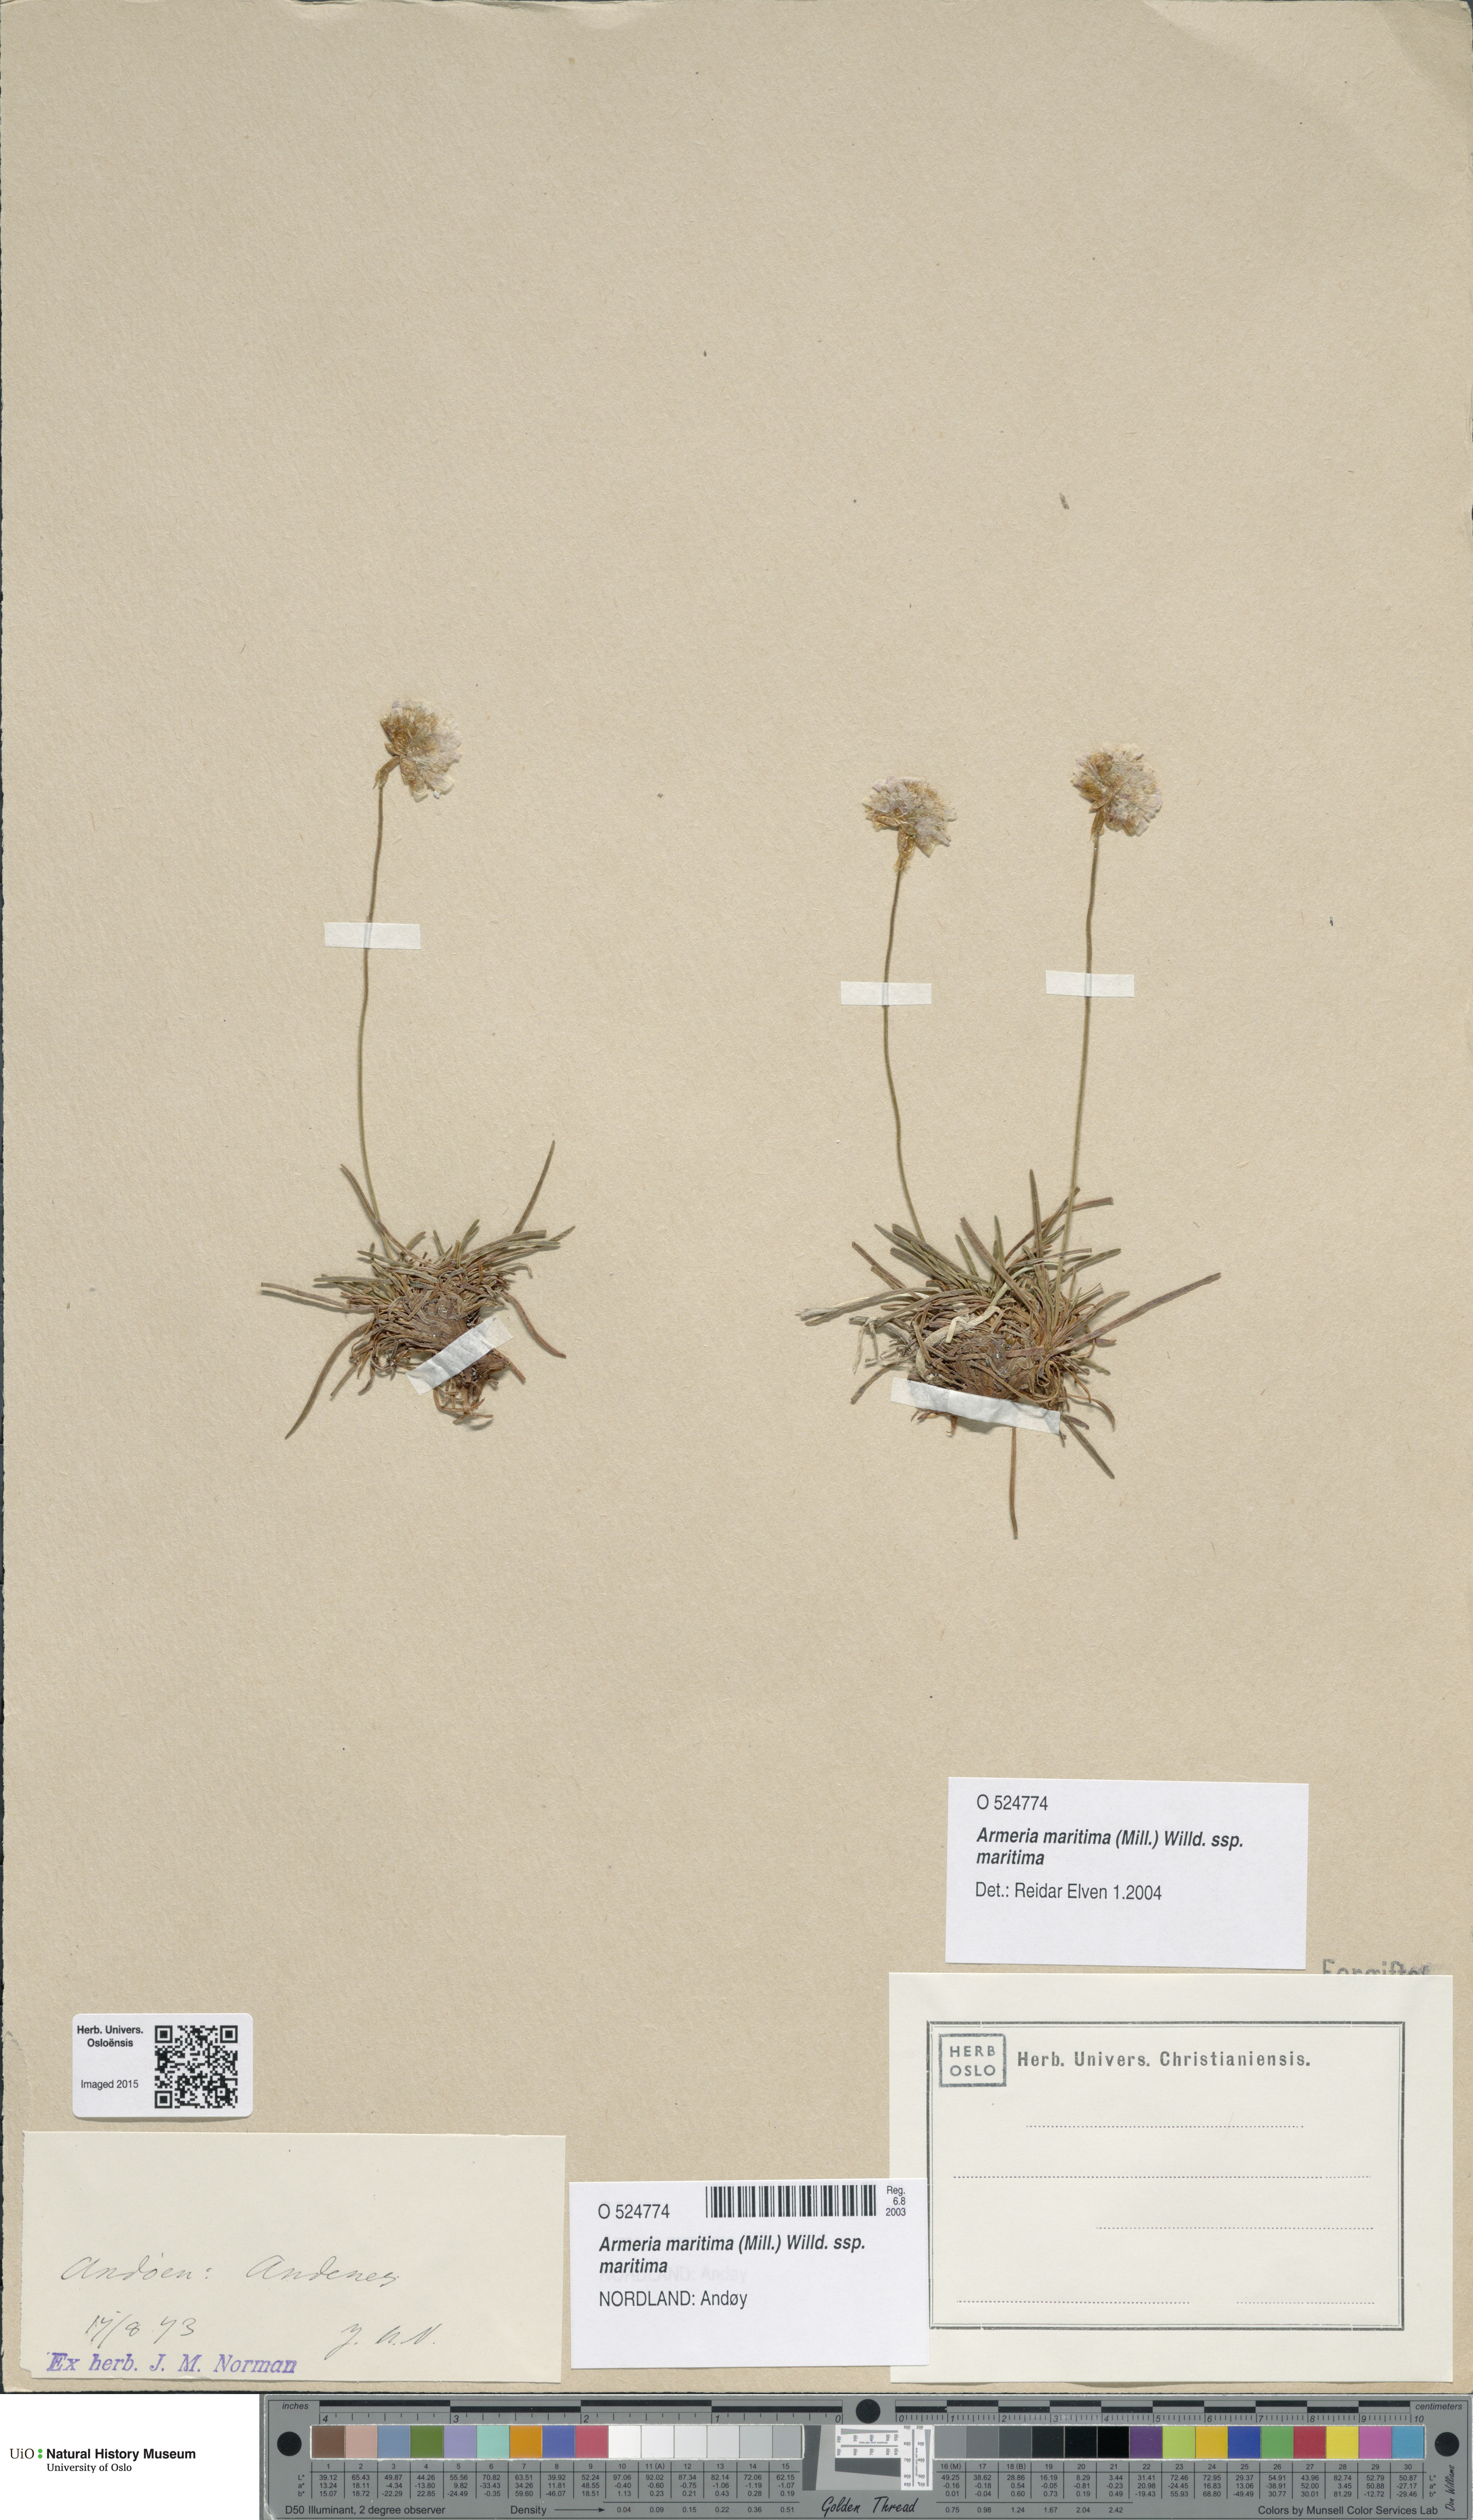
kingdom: Plantae
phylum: Tracheophyta
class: Magnoliopsida
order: Caryophyllales
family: Plumbaginaceae
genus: Armeria
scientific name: Armeria maritima
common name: Thrift
